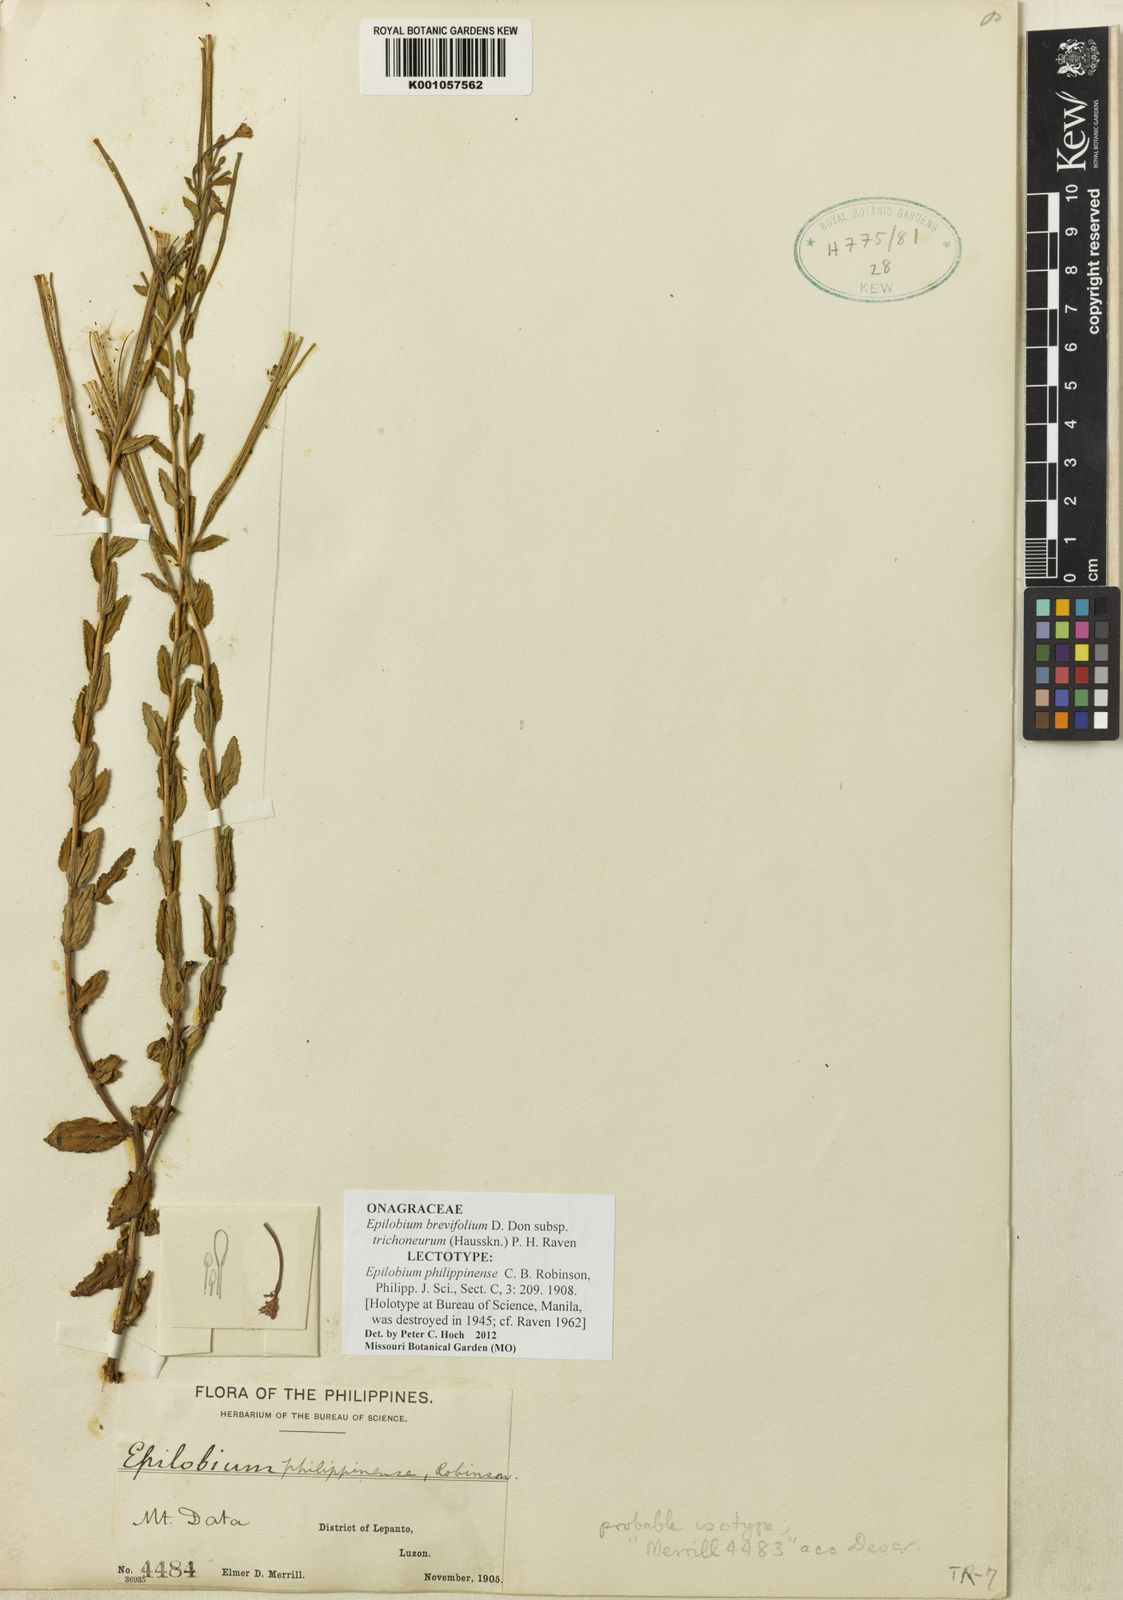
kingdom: Plantae
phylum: Tracheophyta
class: Magnoliopsida
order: Myrtales
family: Onagraceae
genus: Epilobium
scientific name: Epilobium brevifolium
